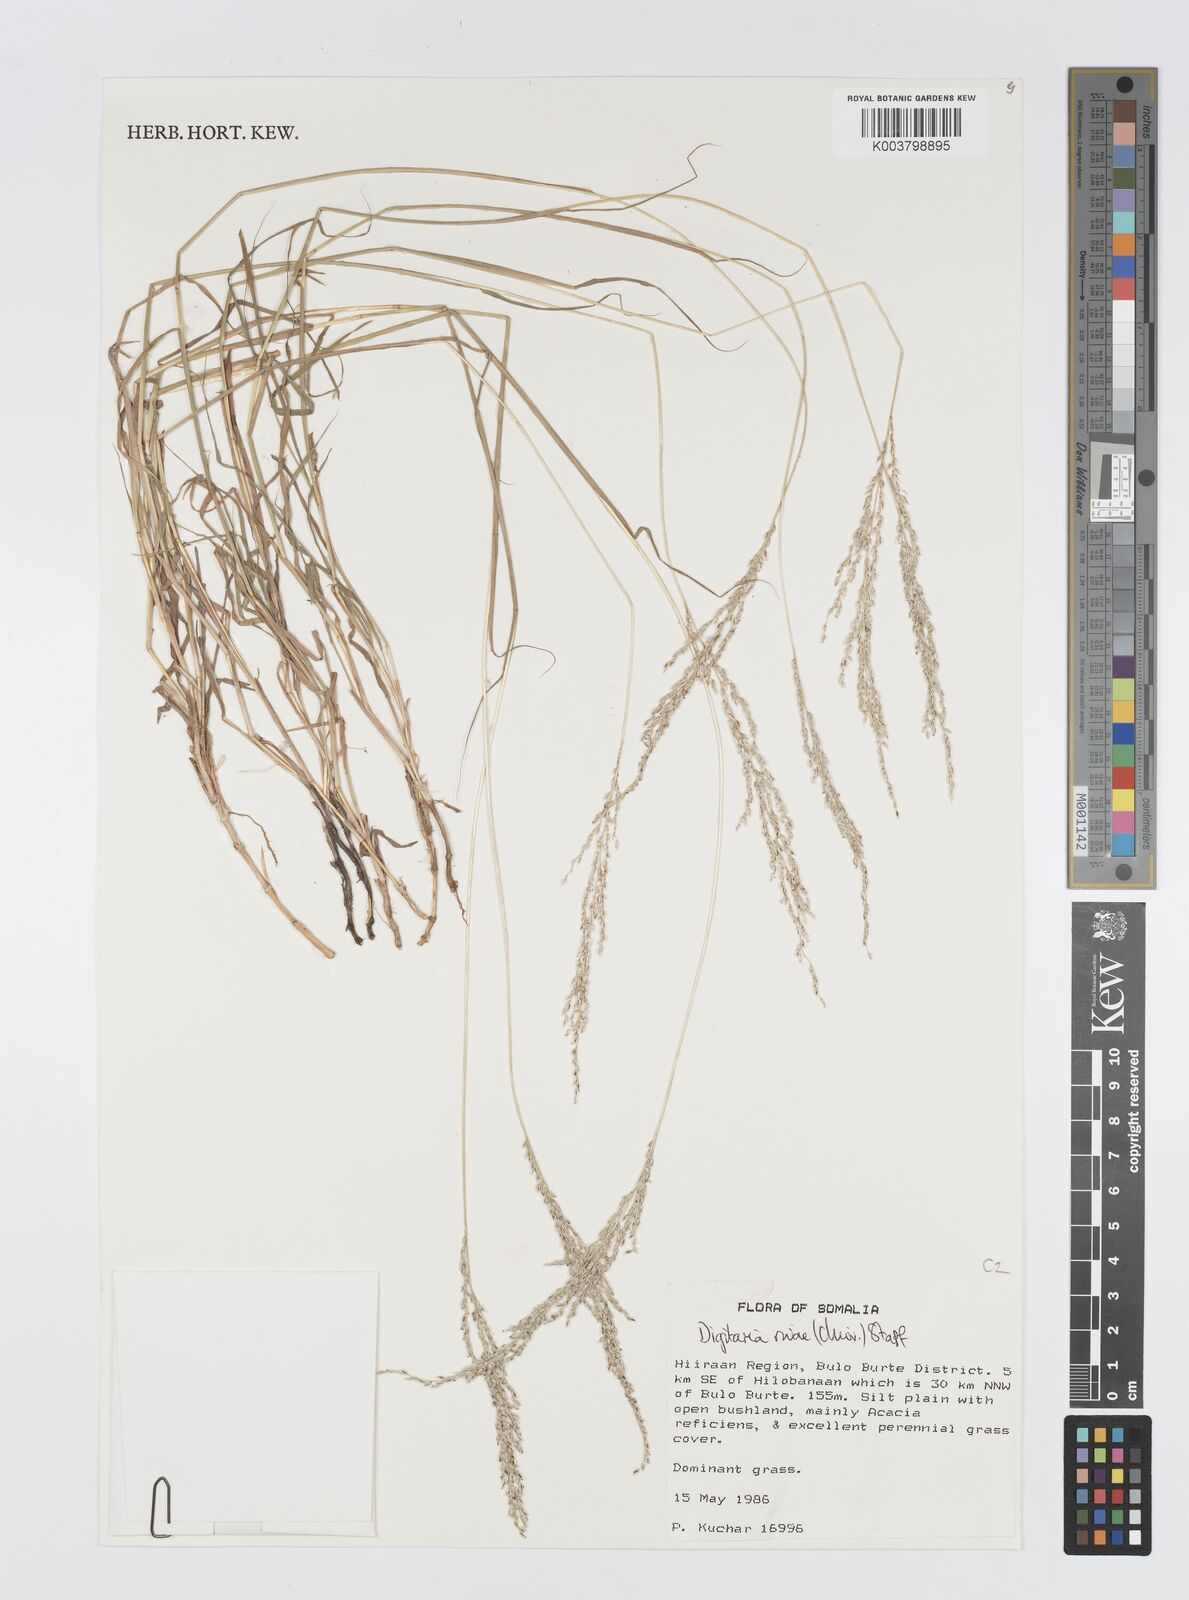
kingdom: Plantae
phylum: Tracheophyta
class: Liliopsida
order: Poales
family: Poaceae
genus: Digitaria
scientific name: Digitaria rivae
